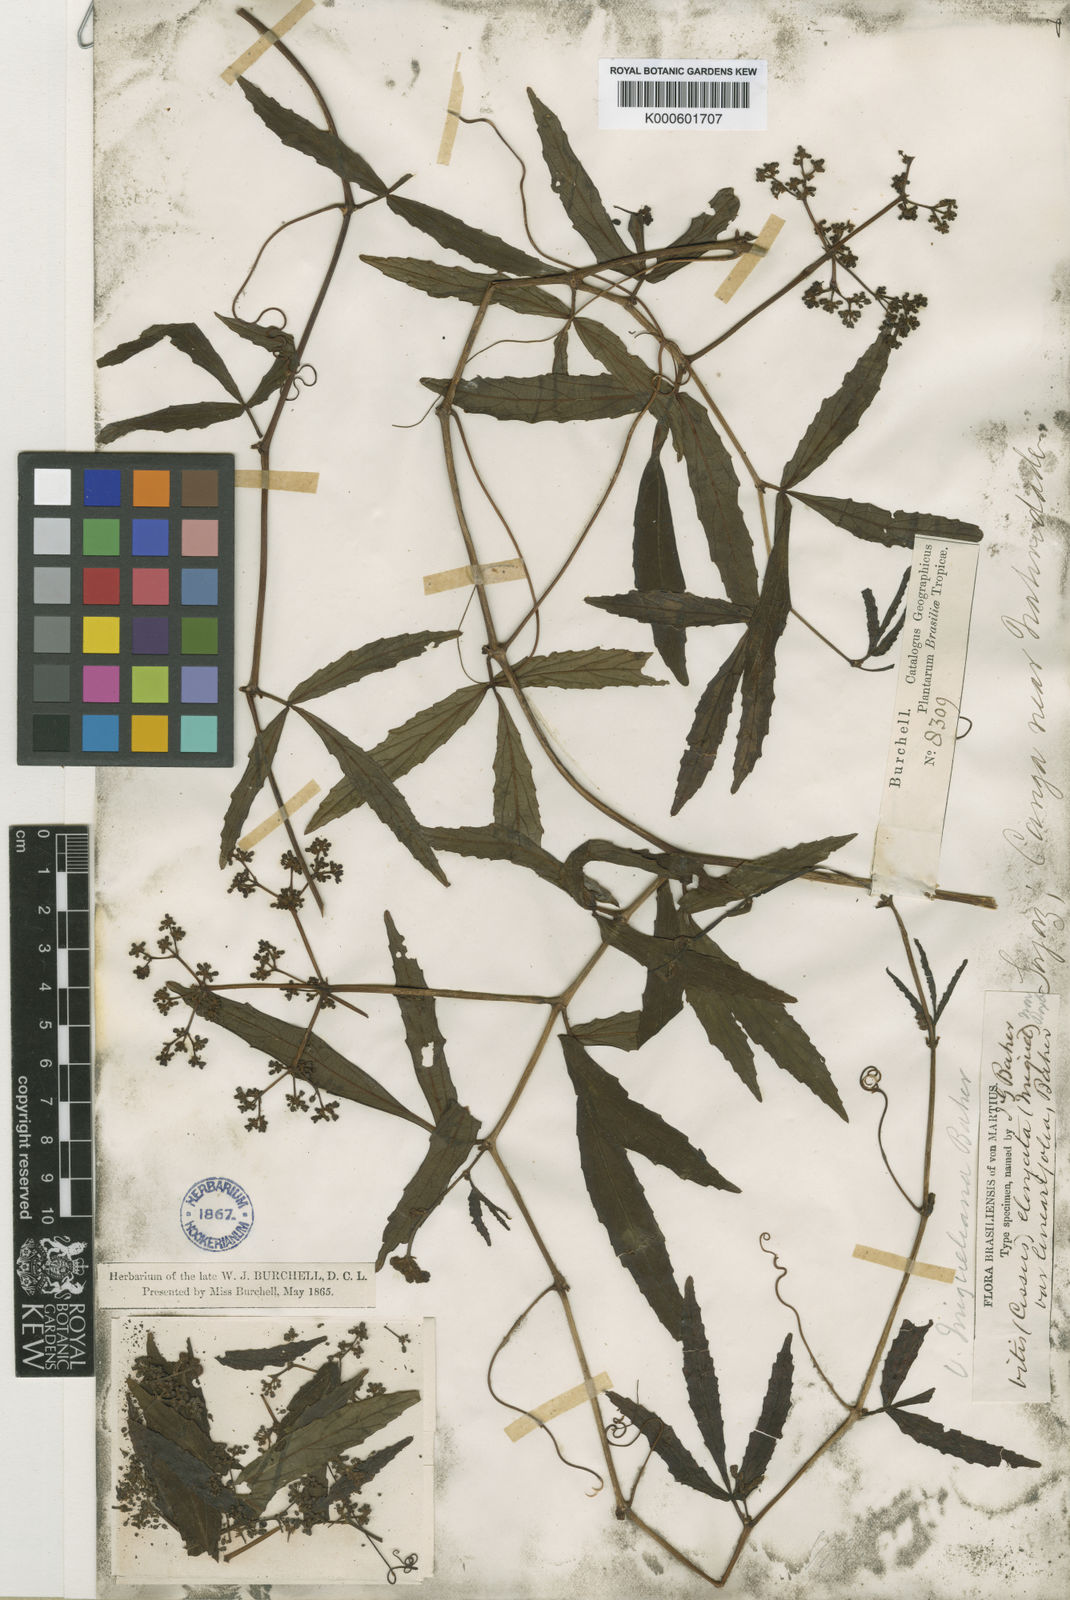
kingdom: Plantae
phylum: Tracheophyta
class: Magnoliopsida
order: Vitales
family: Vitaceae
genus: Cissus
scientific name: Cissus erosa
